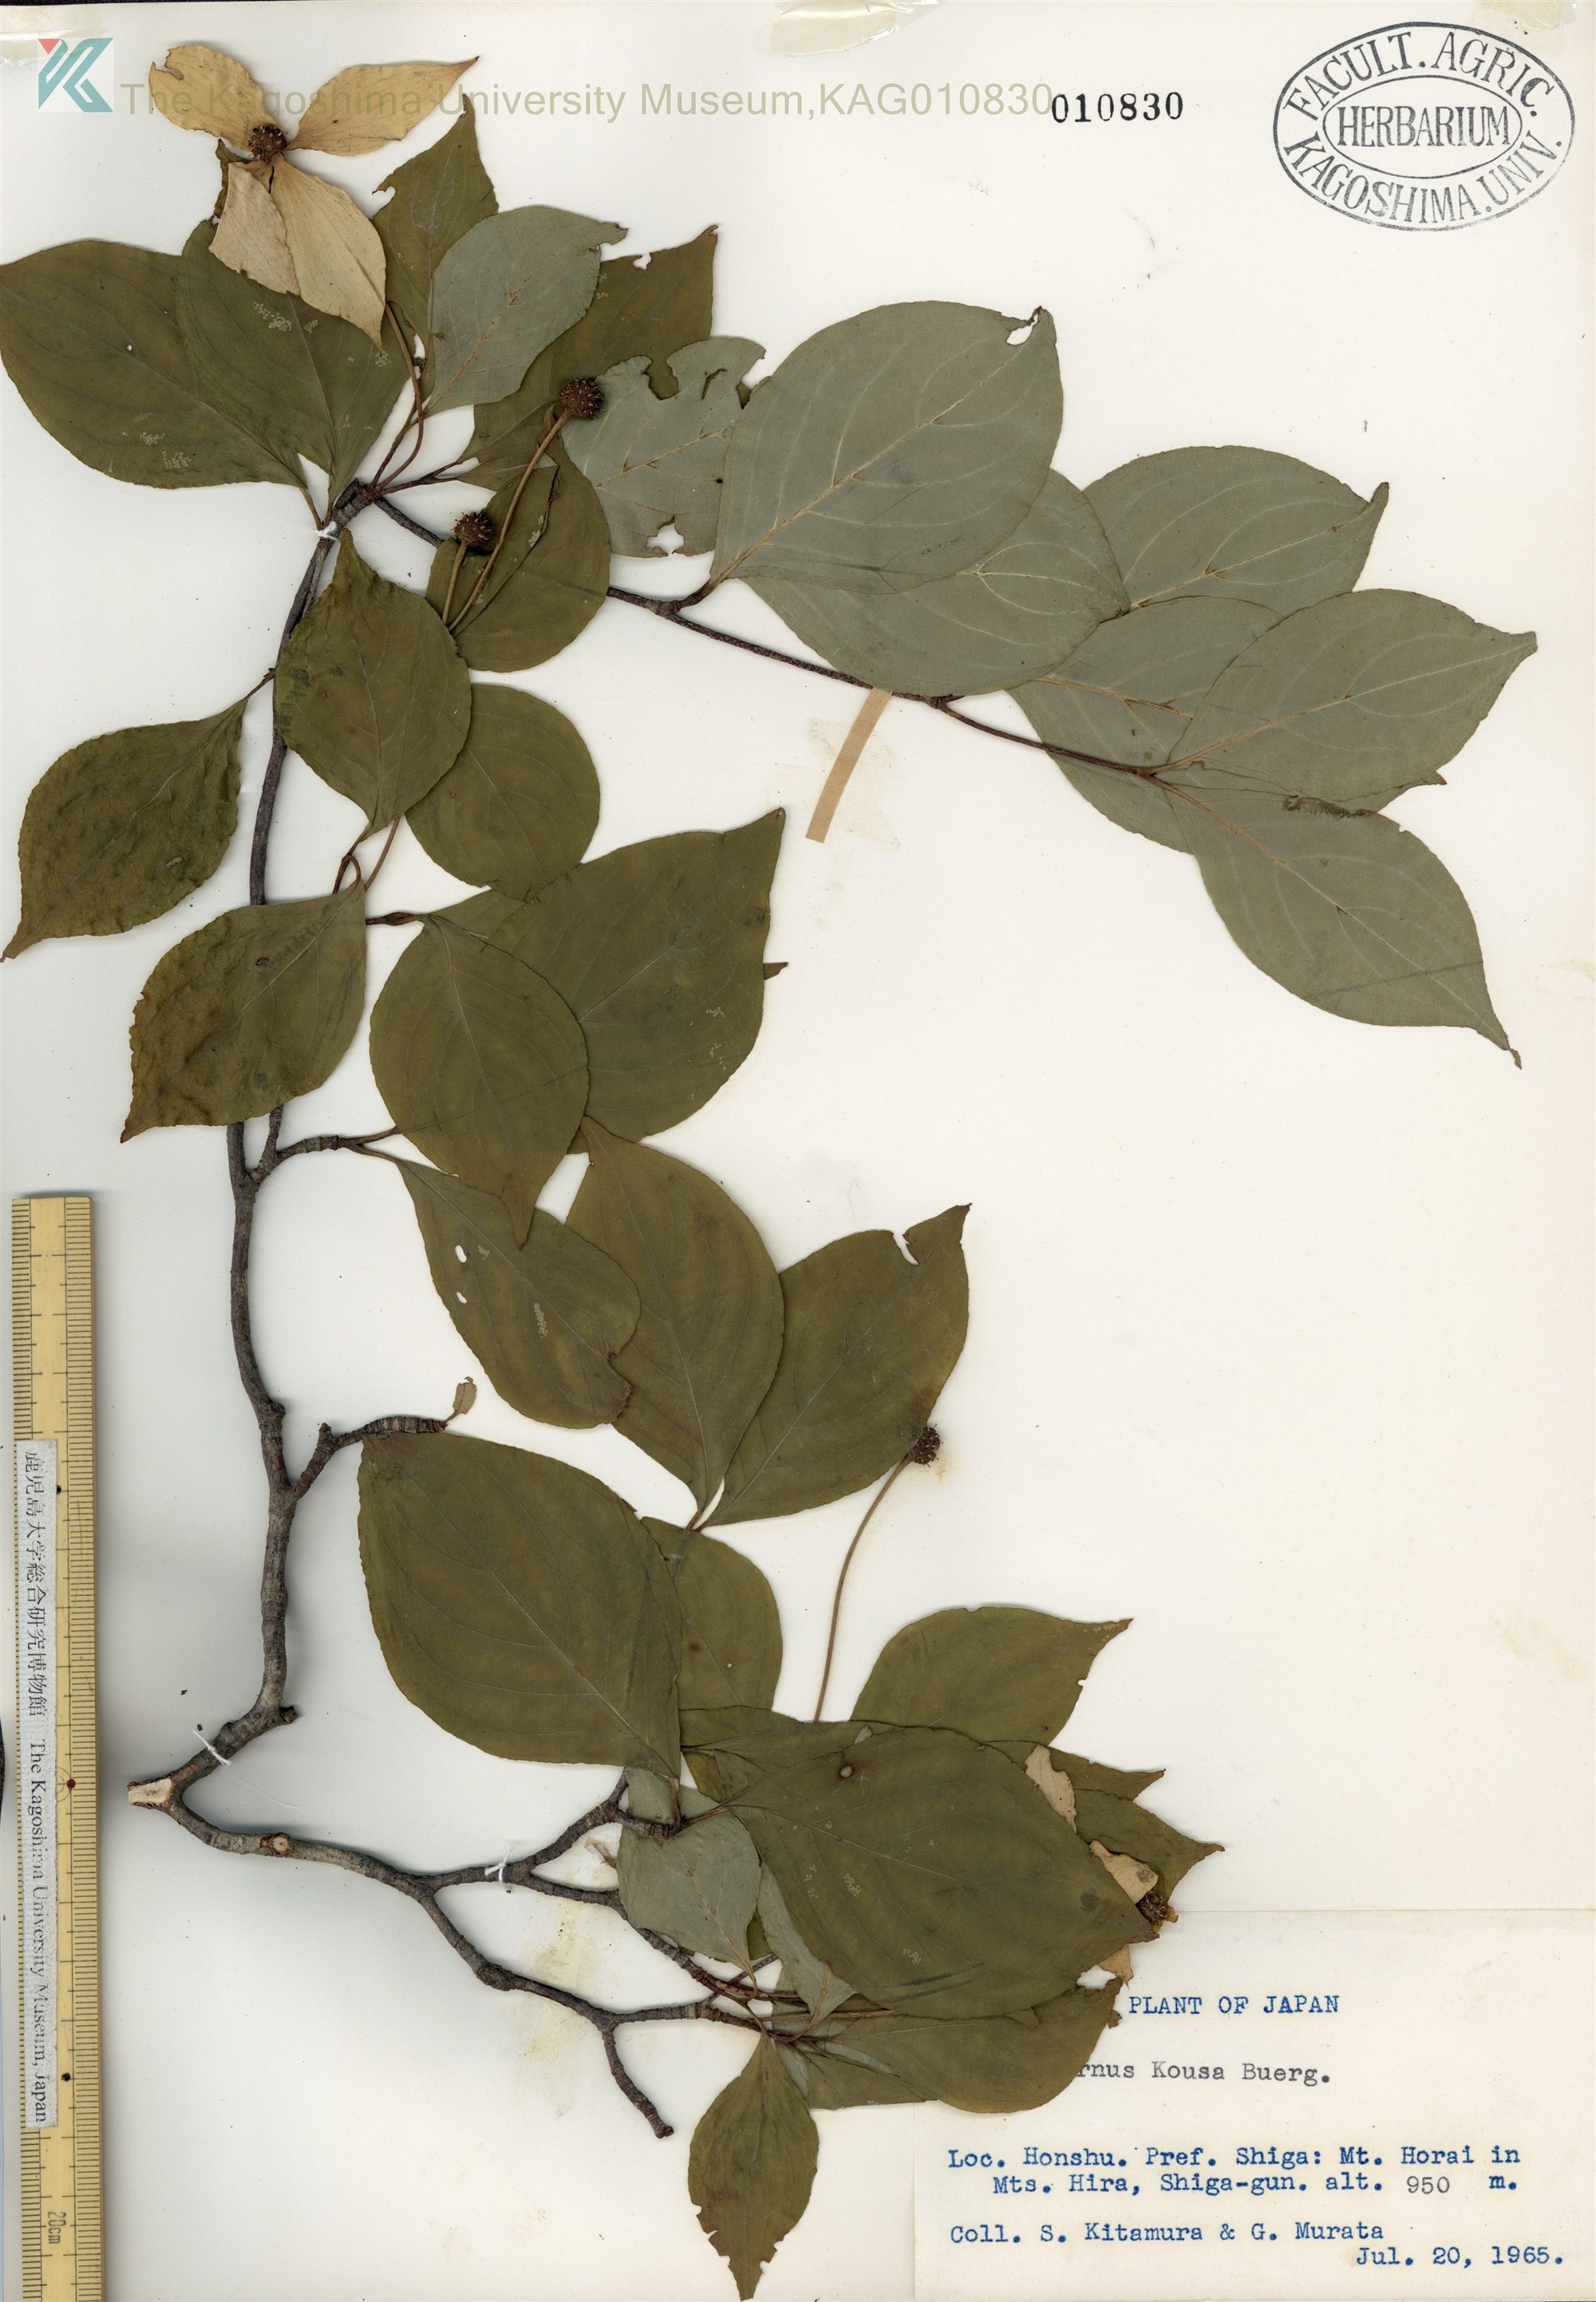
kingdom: Plantae
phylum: Tracheophyta
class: Magnoliopsida
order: Cornales
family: Cornaceae
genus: Cornus
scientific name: Cornus kousa
